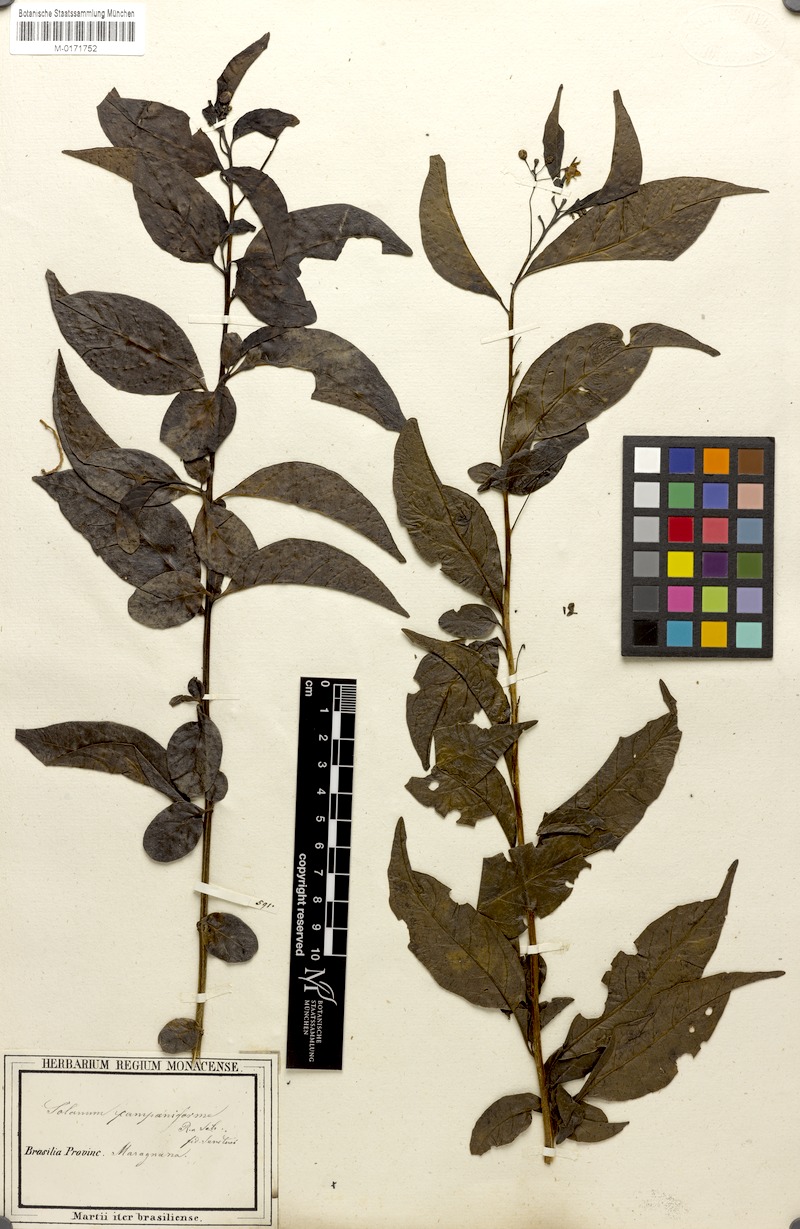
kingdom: Plantae
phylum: Tracheophyta
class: Magnoliopsida
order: Solanales
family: Solanaceae
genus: Solanum
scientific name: Solanum campaniforme
